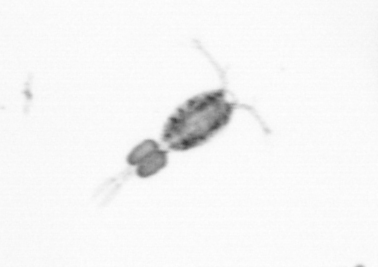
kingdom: Animalia
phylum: Arthropoda
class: Copepoda
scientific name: Copepoda
